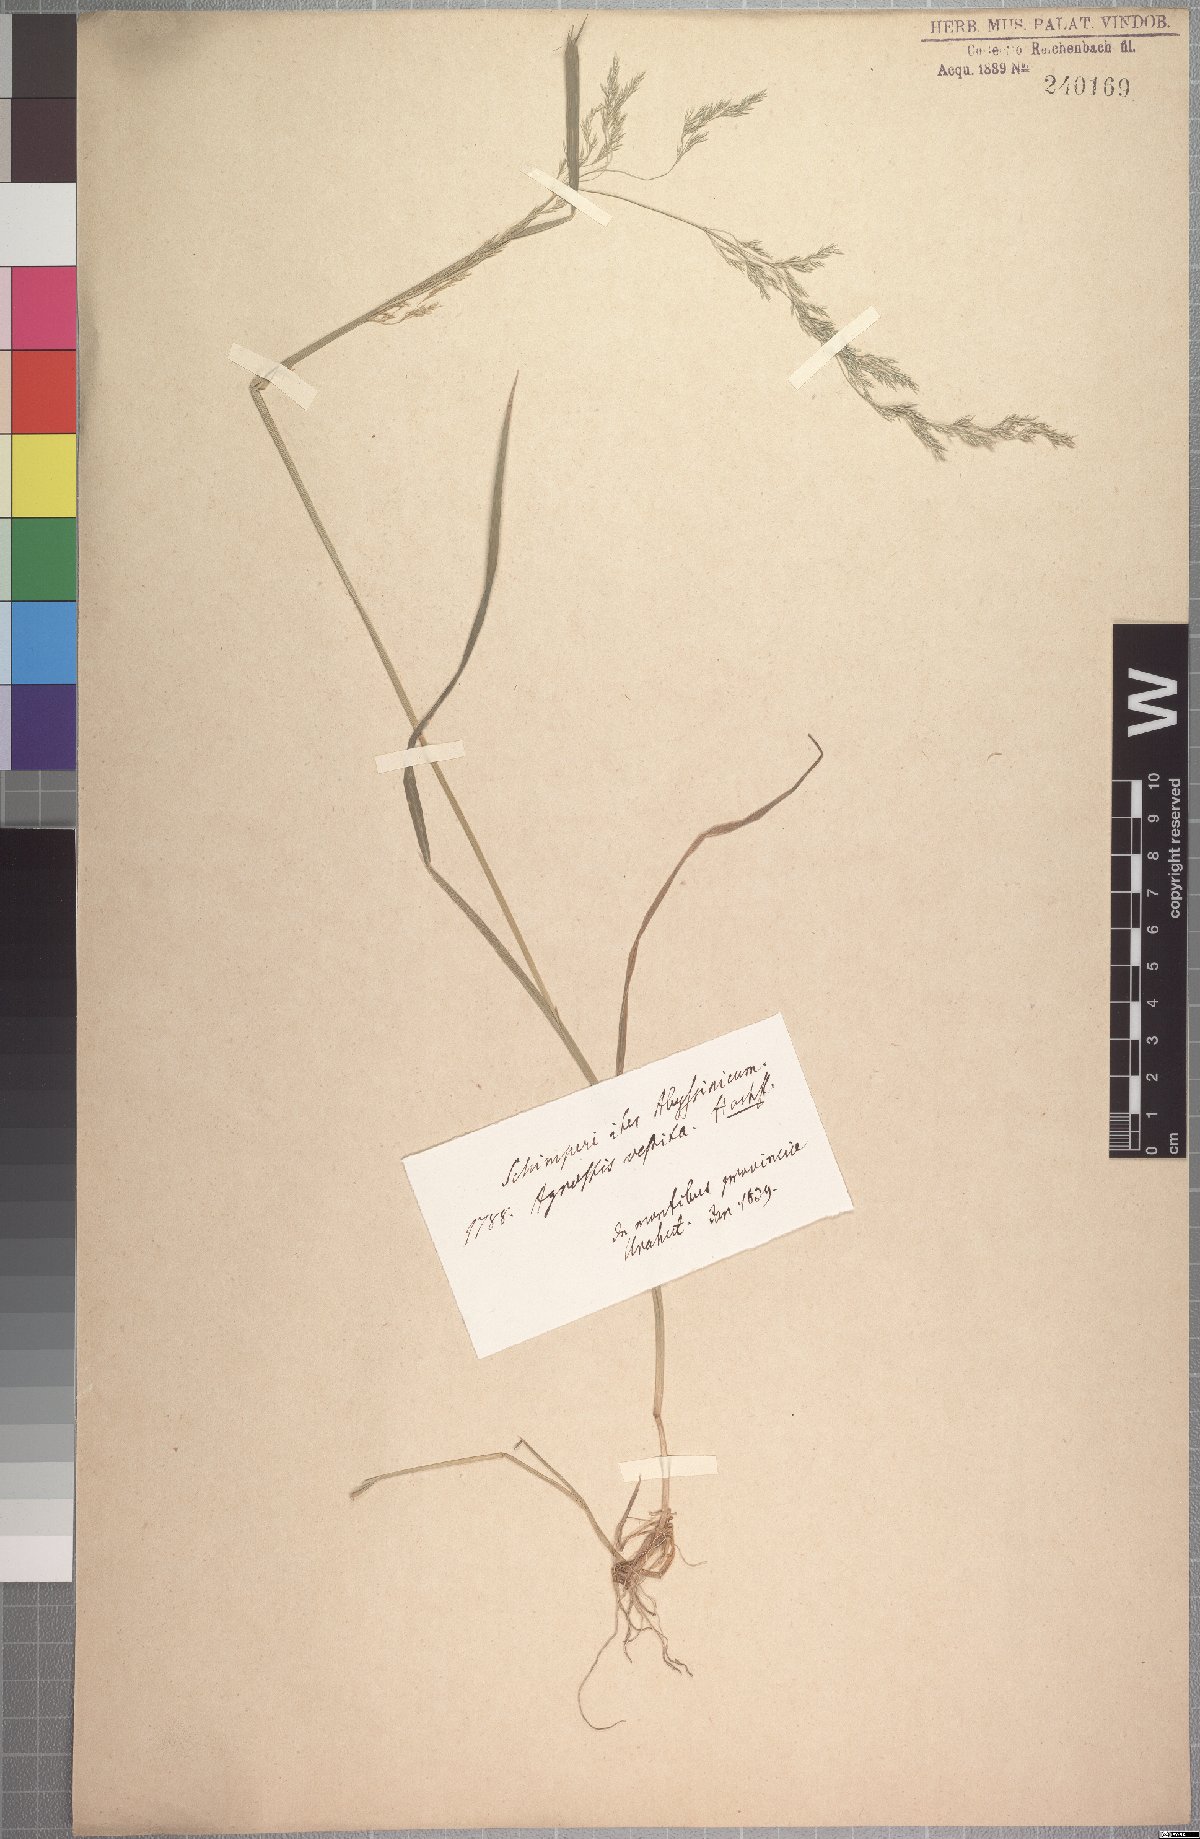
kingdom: Plantae
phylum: Tracheophyta
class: Liliopsida
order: Poales
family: Poaceae
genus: Lachnagrostis
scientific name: Lachnagrostis lachnantha
